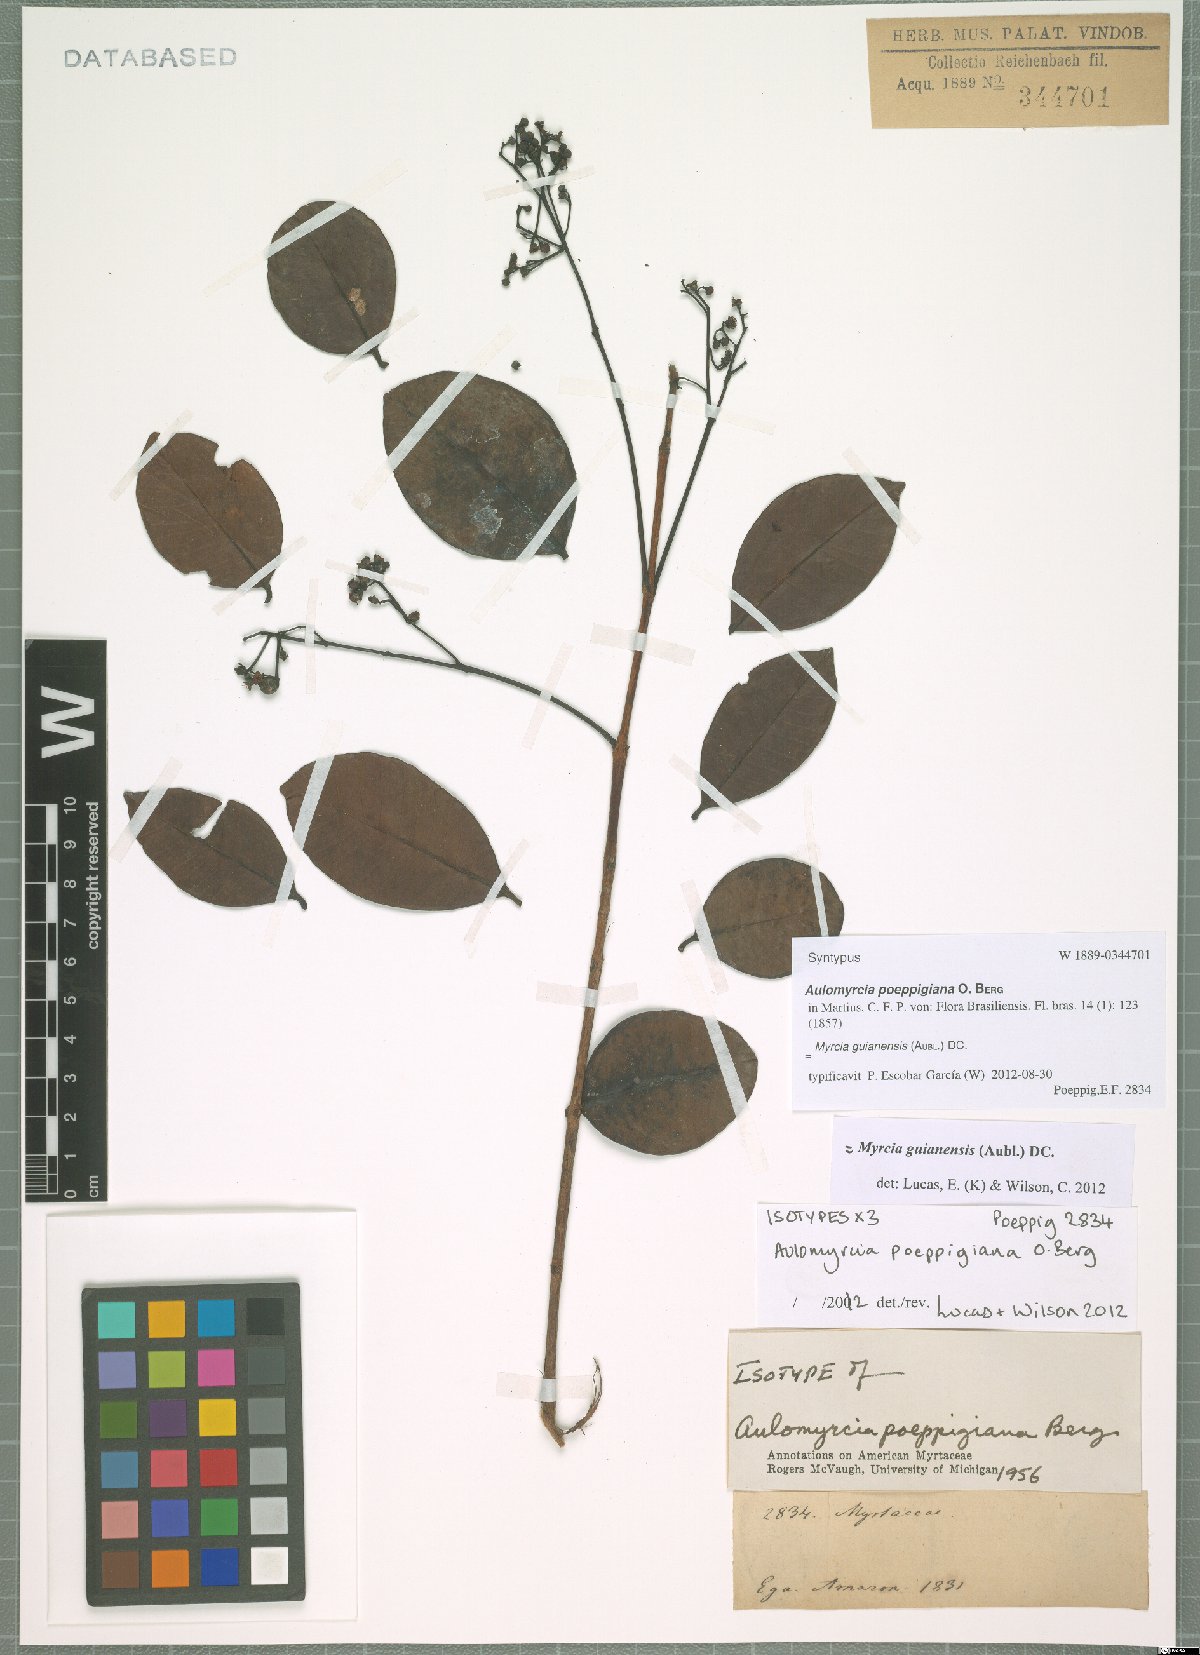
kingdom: Plantae
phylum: Tracheophyta
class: Magnoliopsida
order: Myrtales
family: Myrtaceae
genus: Myrcia
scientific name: Myrcia guianensis
